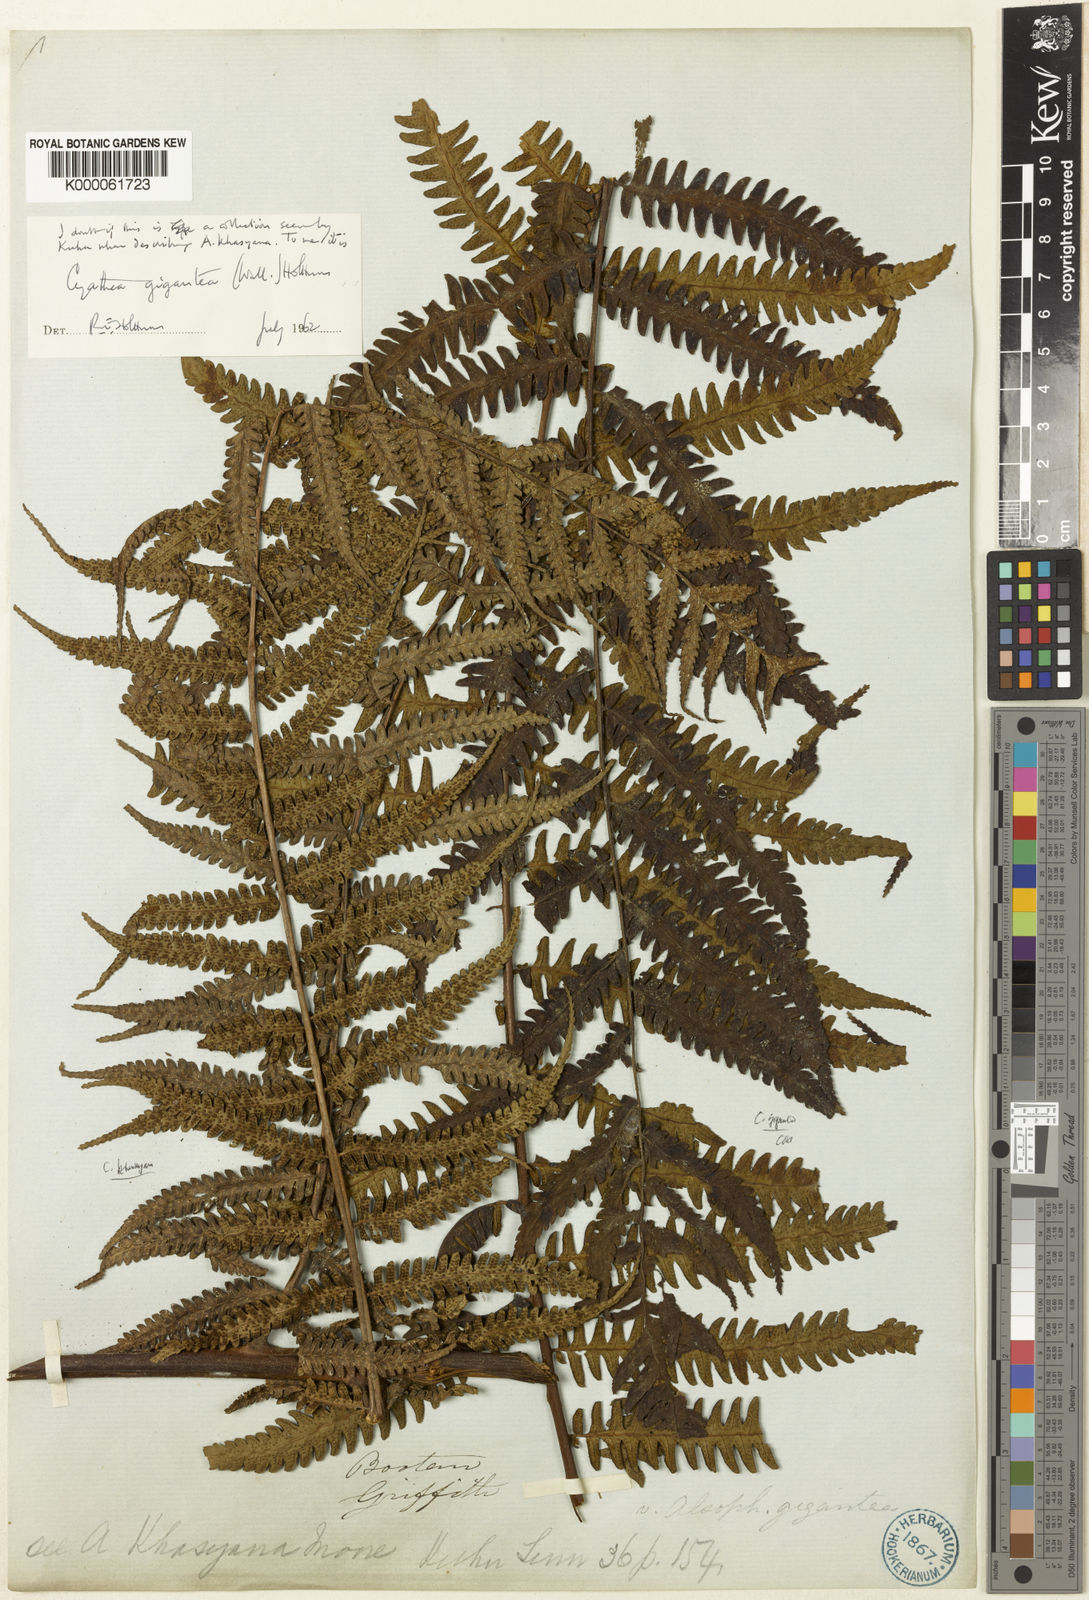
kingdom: Plantae
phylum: Tracheophyta
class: Polypodiopsida
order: Cyatheales
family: Cyatheaceae
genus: Gymnosphaera
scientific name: Gymnosphaera gigantea
